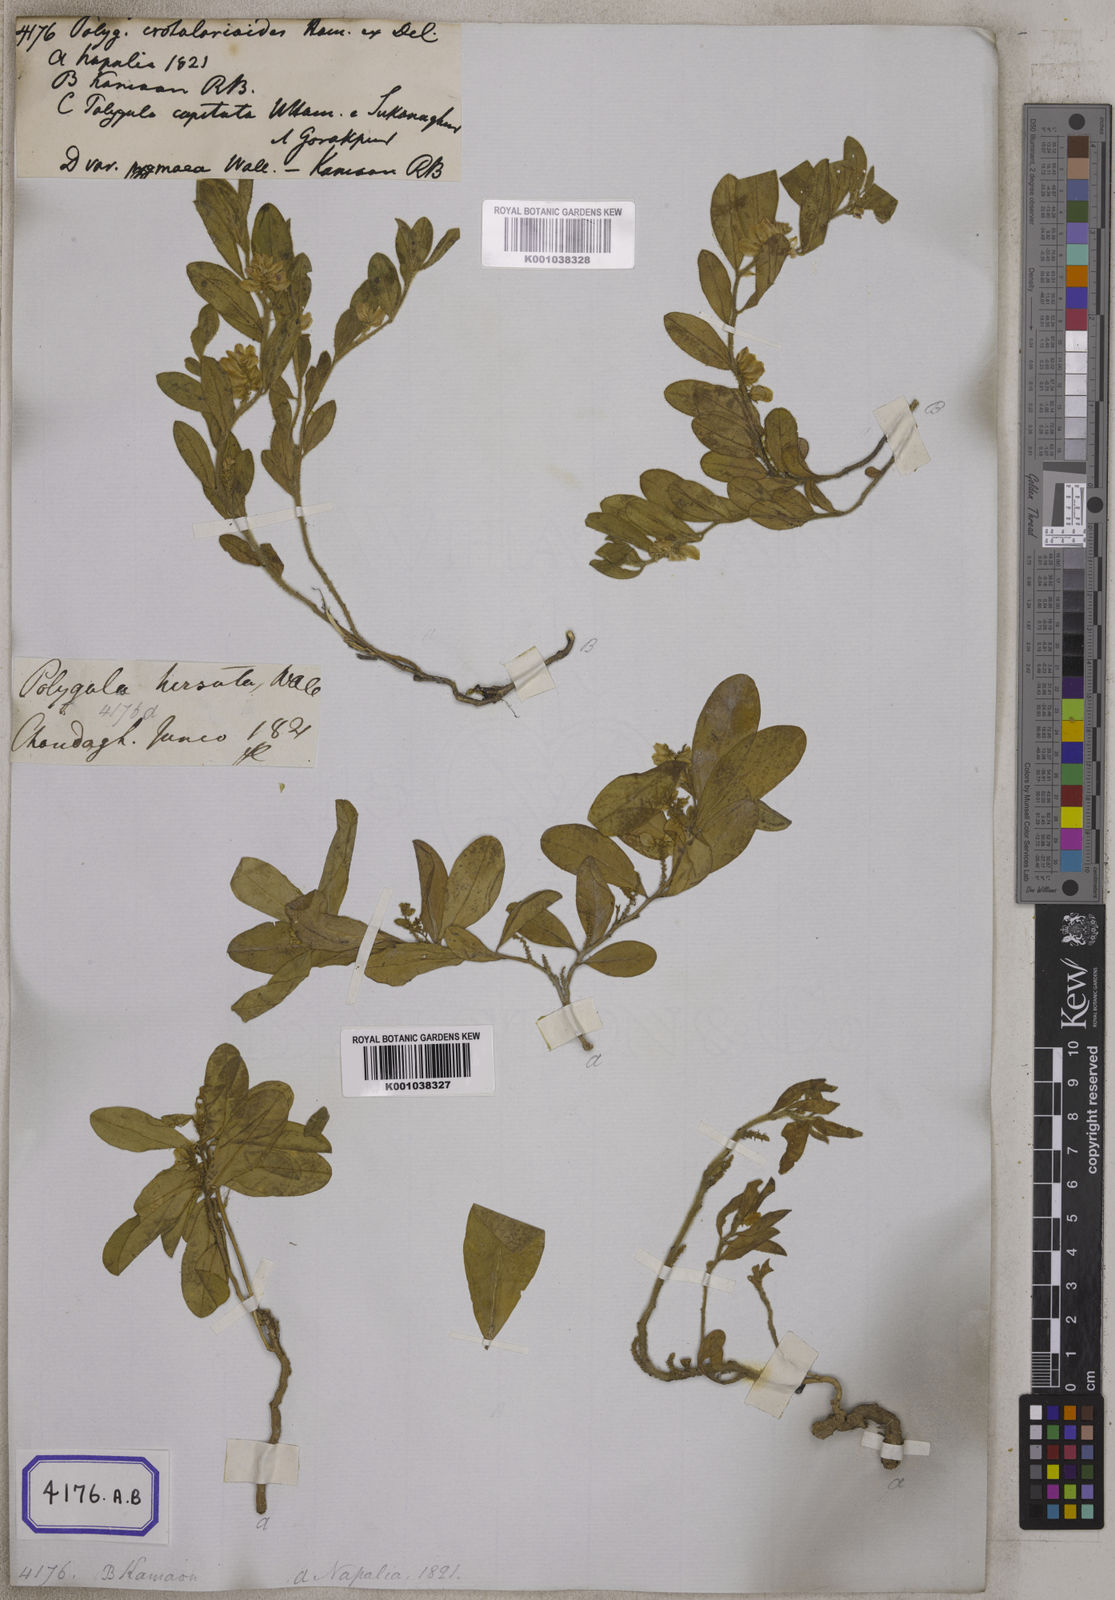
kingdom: Plantae
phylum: Tracheophyta
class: Magnoliopsida
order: Fabales
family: Polygalaceae
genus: Polygala
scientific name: Polygala crotalarioides
